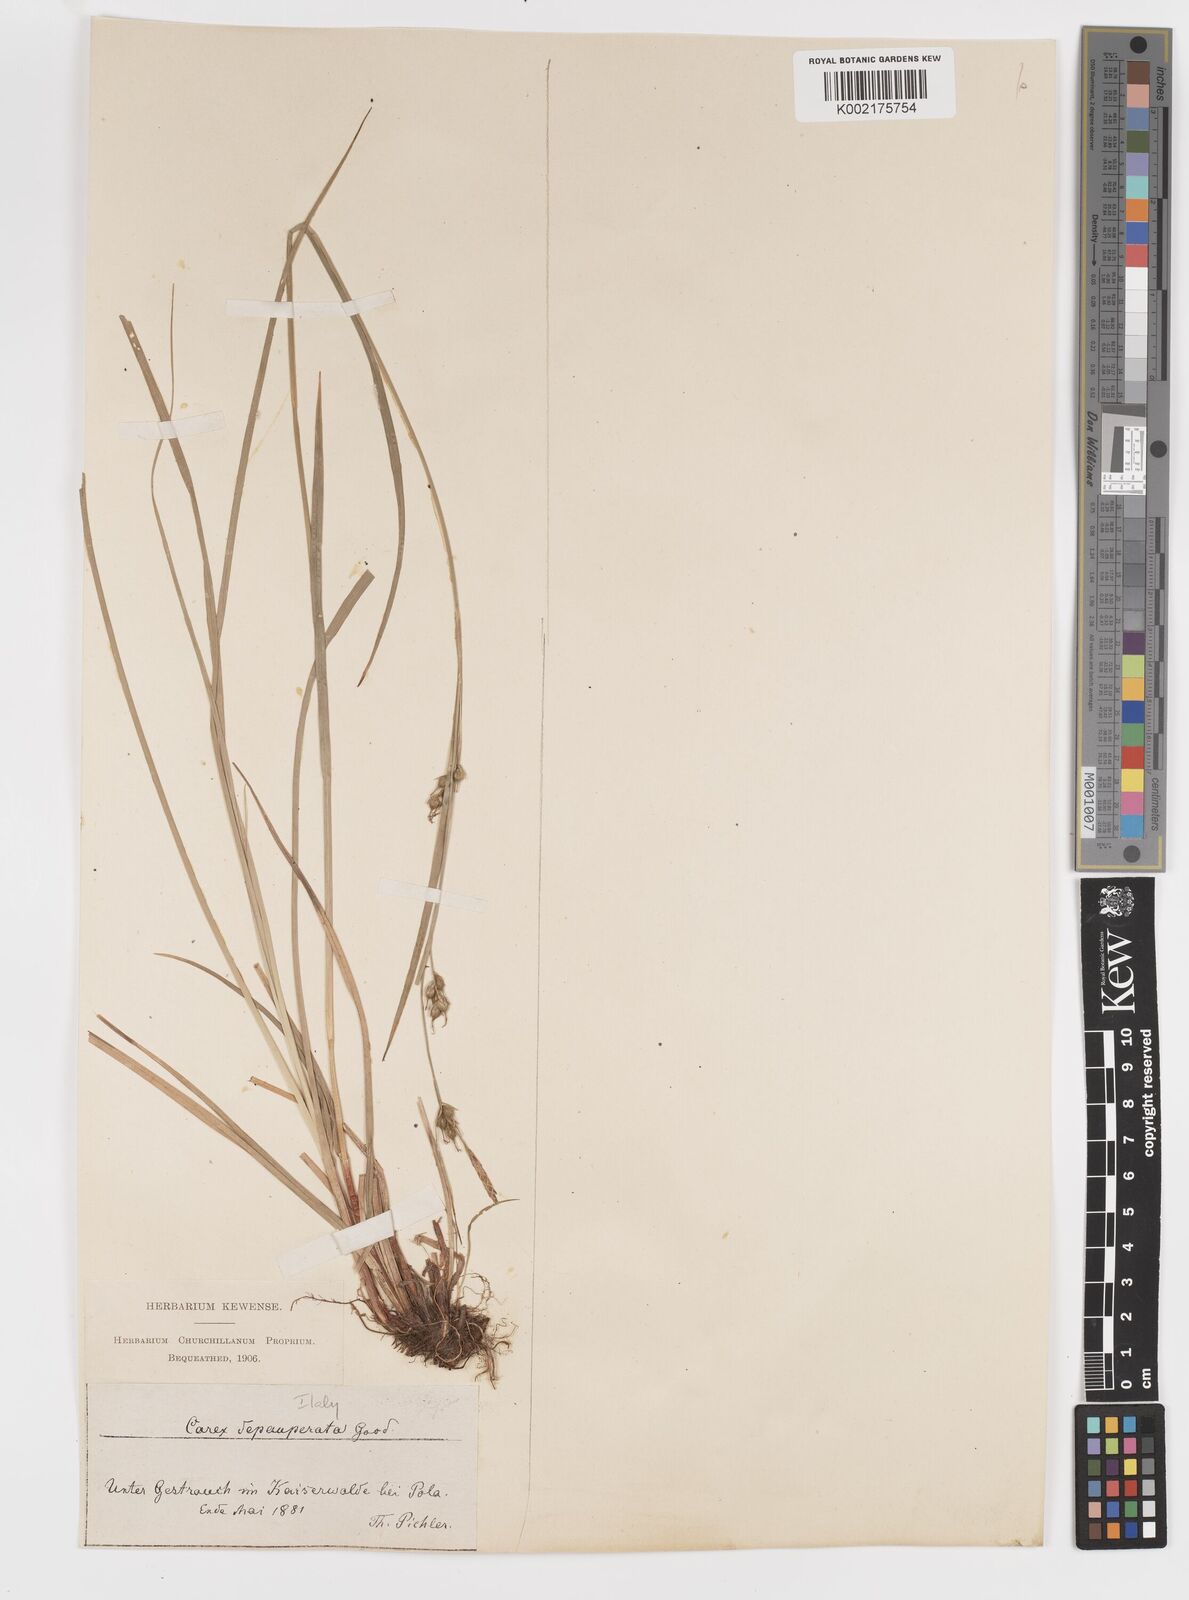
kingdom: Plantae
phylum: Tracheophyta
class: Liliopsida
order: Poales
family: Cyperaceae
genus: Carex
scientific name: Carex
